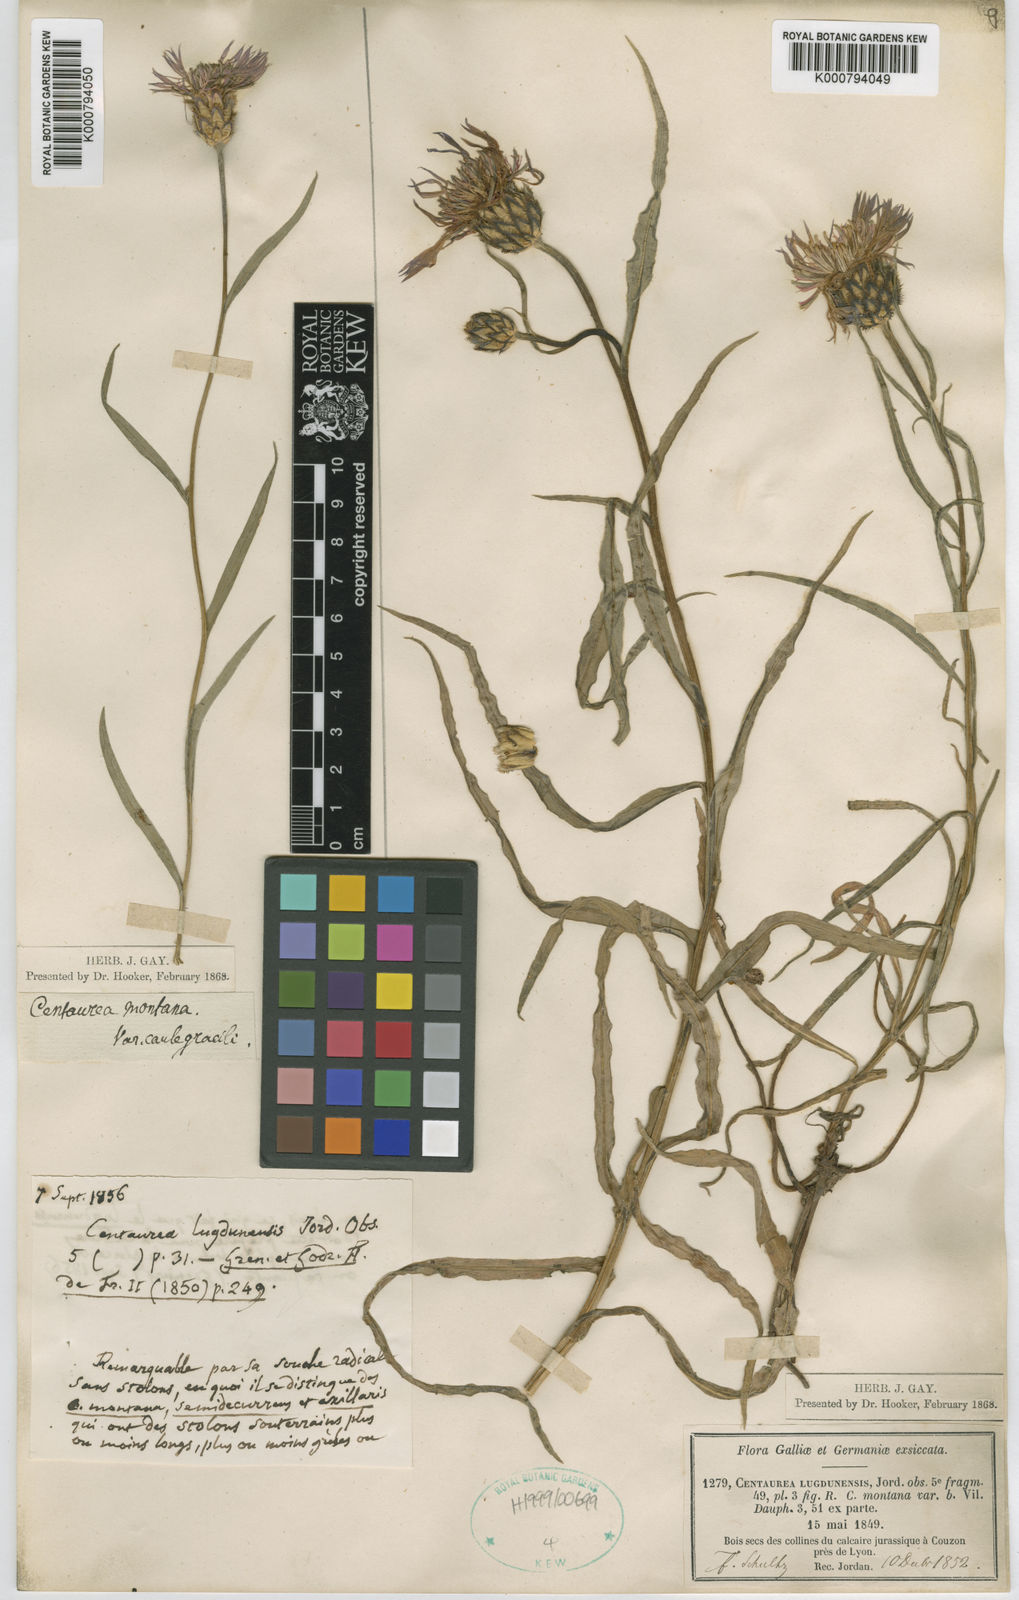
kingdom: Plantae
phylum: Tracheophyta
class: Magnoliopsida
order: Asterales
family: Asteraceae
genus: Centaurea
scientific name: Centaurea triumfettii
